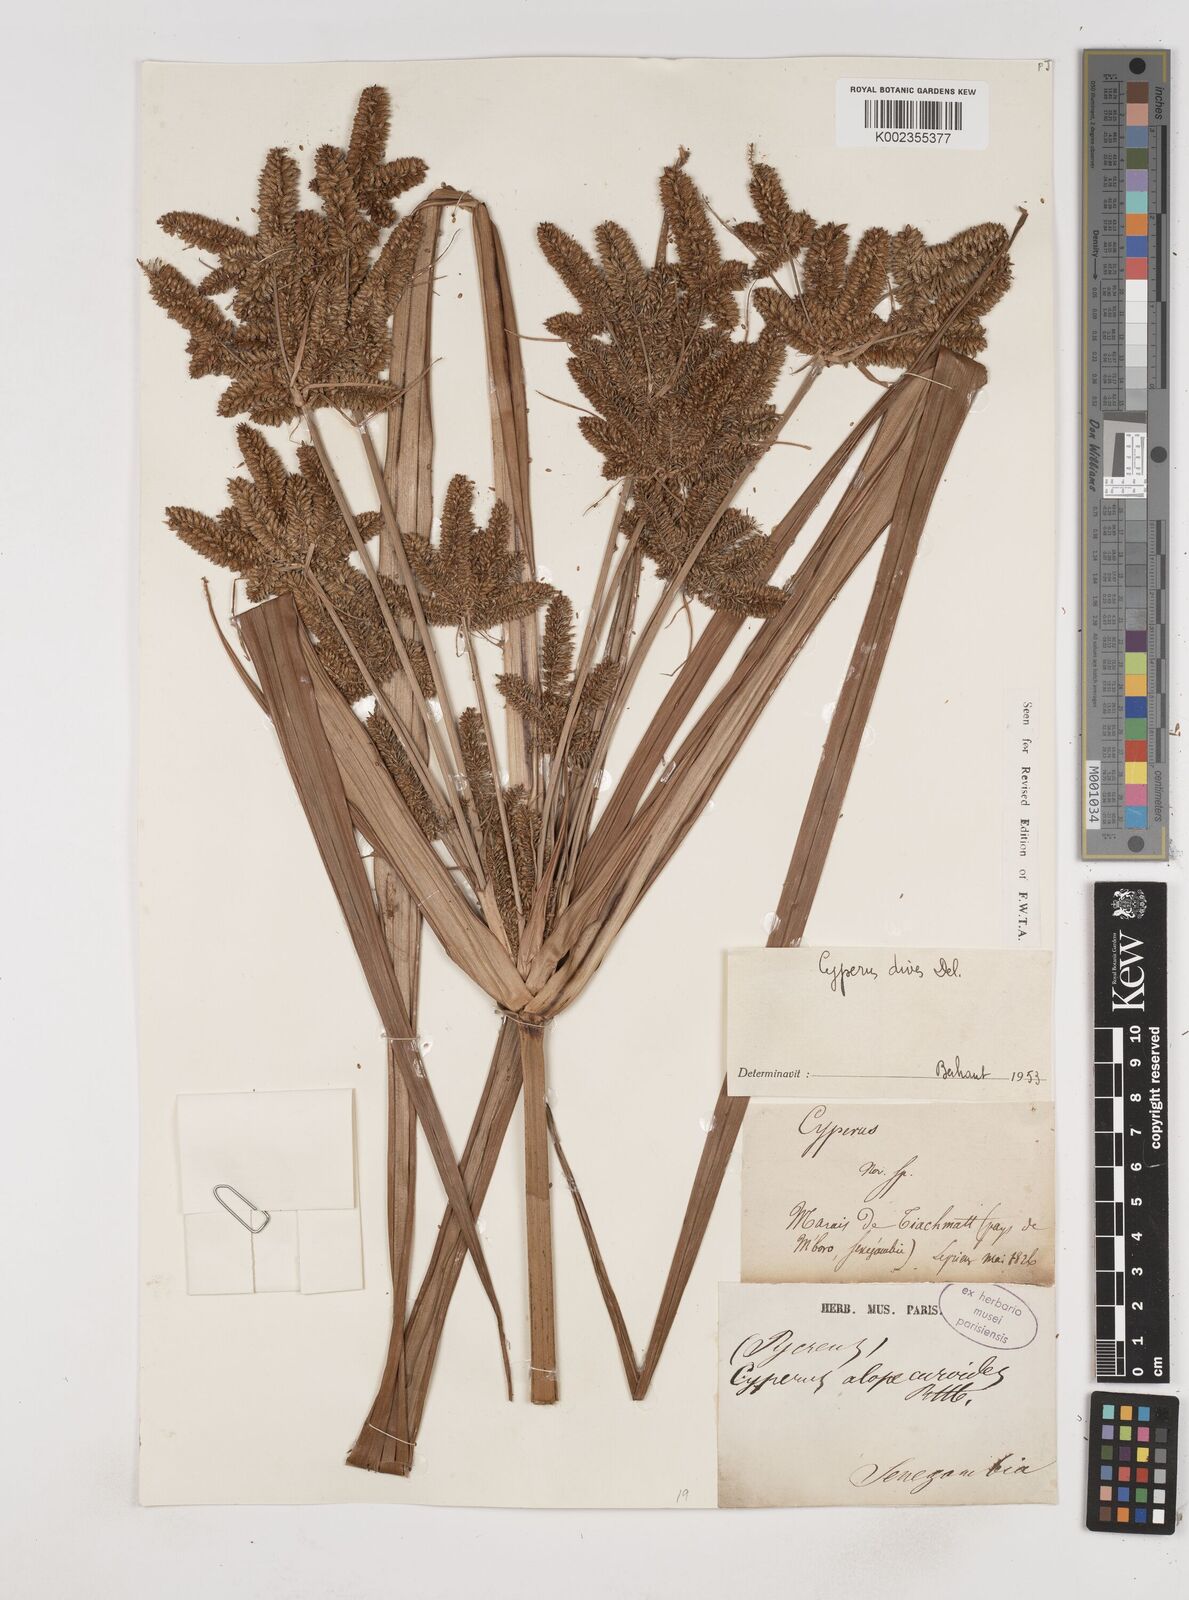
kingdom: Plantae
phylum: Tracheophyta
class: Liliopsida
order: Poales
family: Cyperaceae
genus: Cyperus
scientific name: Cyperus dives
